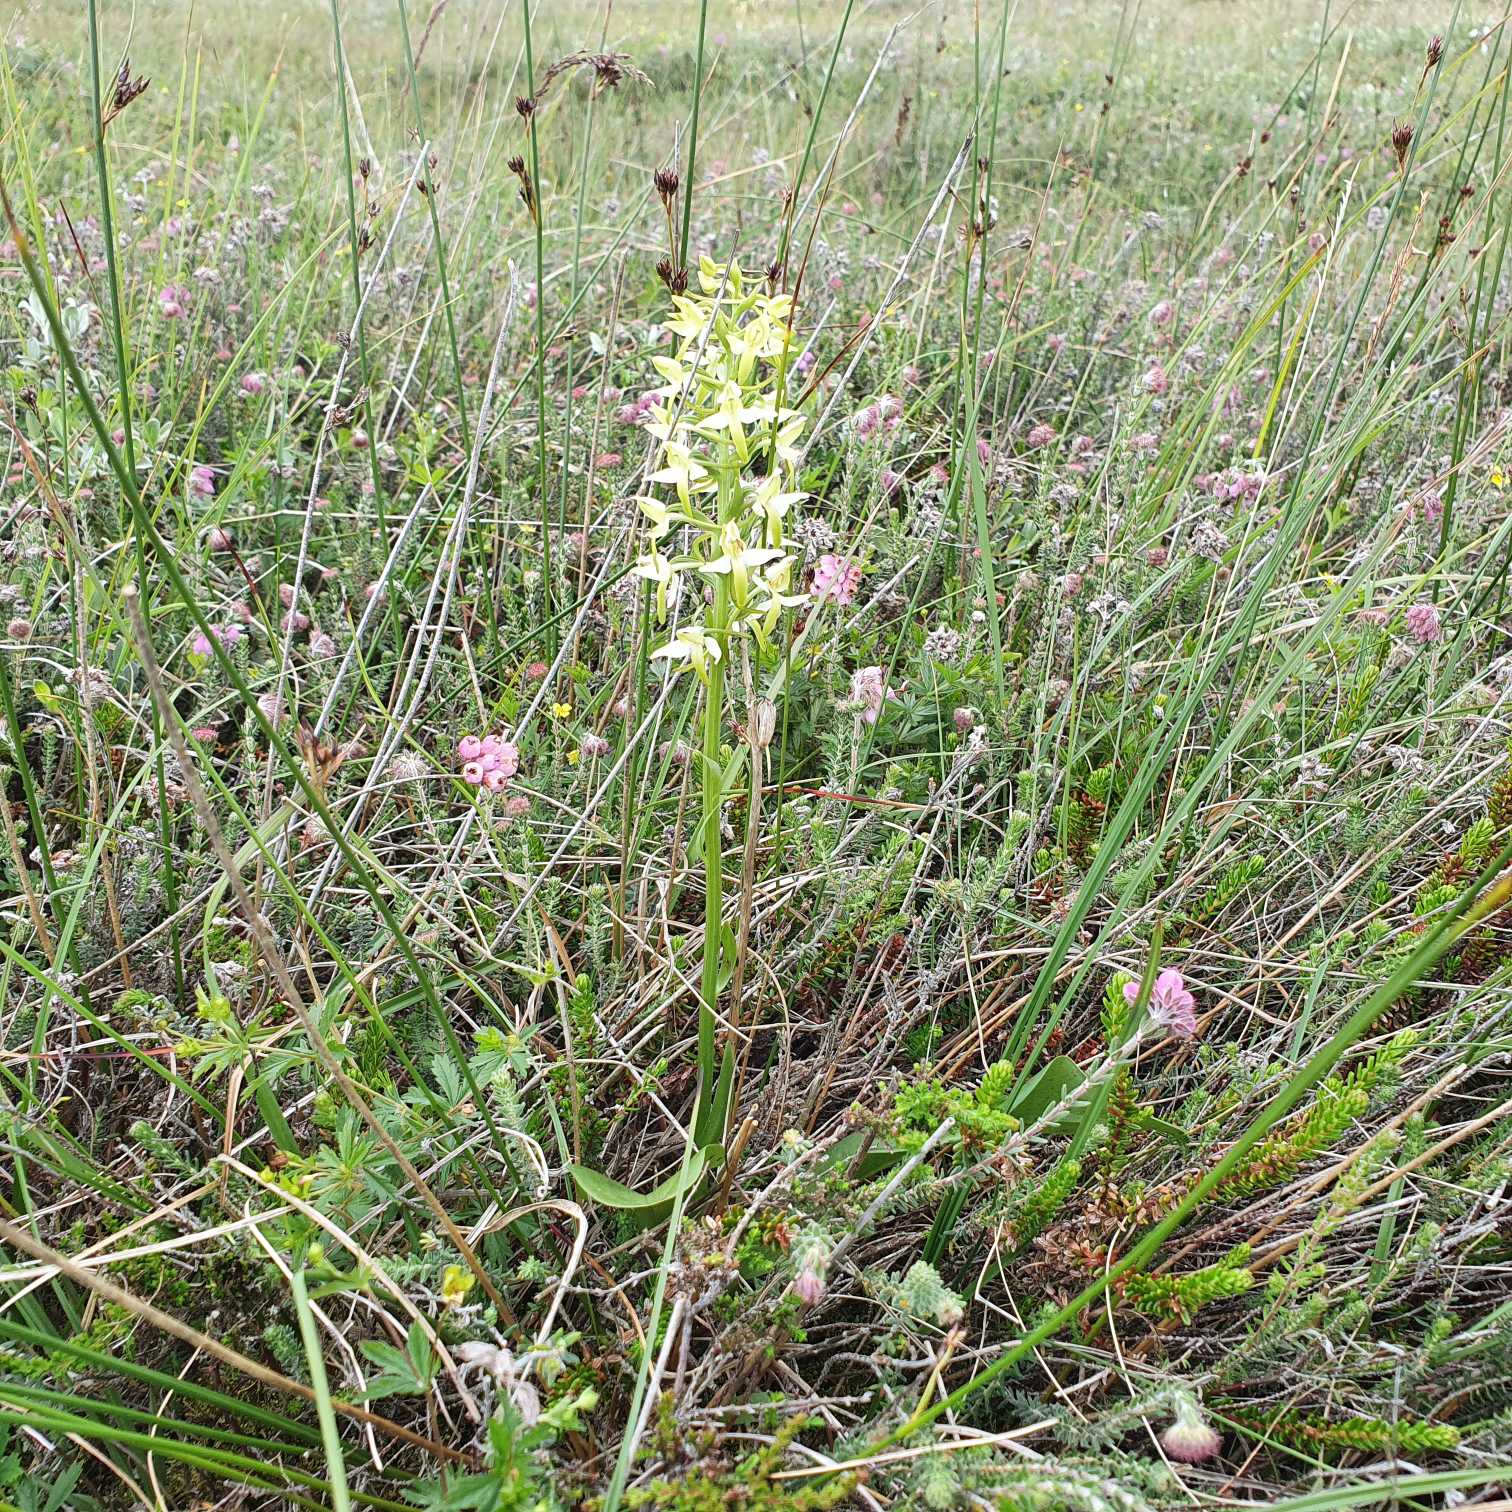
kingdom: Plantae
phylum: Tracheophyta
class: Liliopsida
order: Asparagales
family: Orchidaceae
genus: Platanthera
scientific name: Platanthera bifolia
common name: Bakke-gøgelilje
